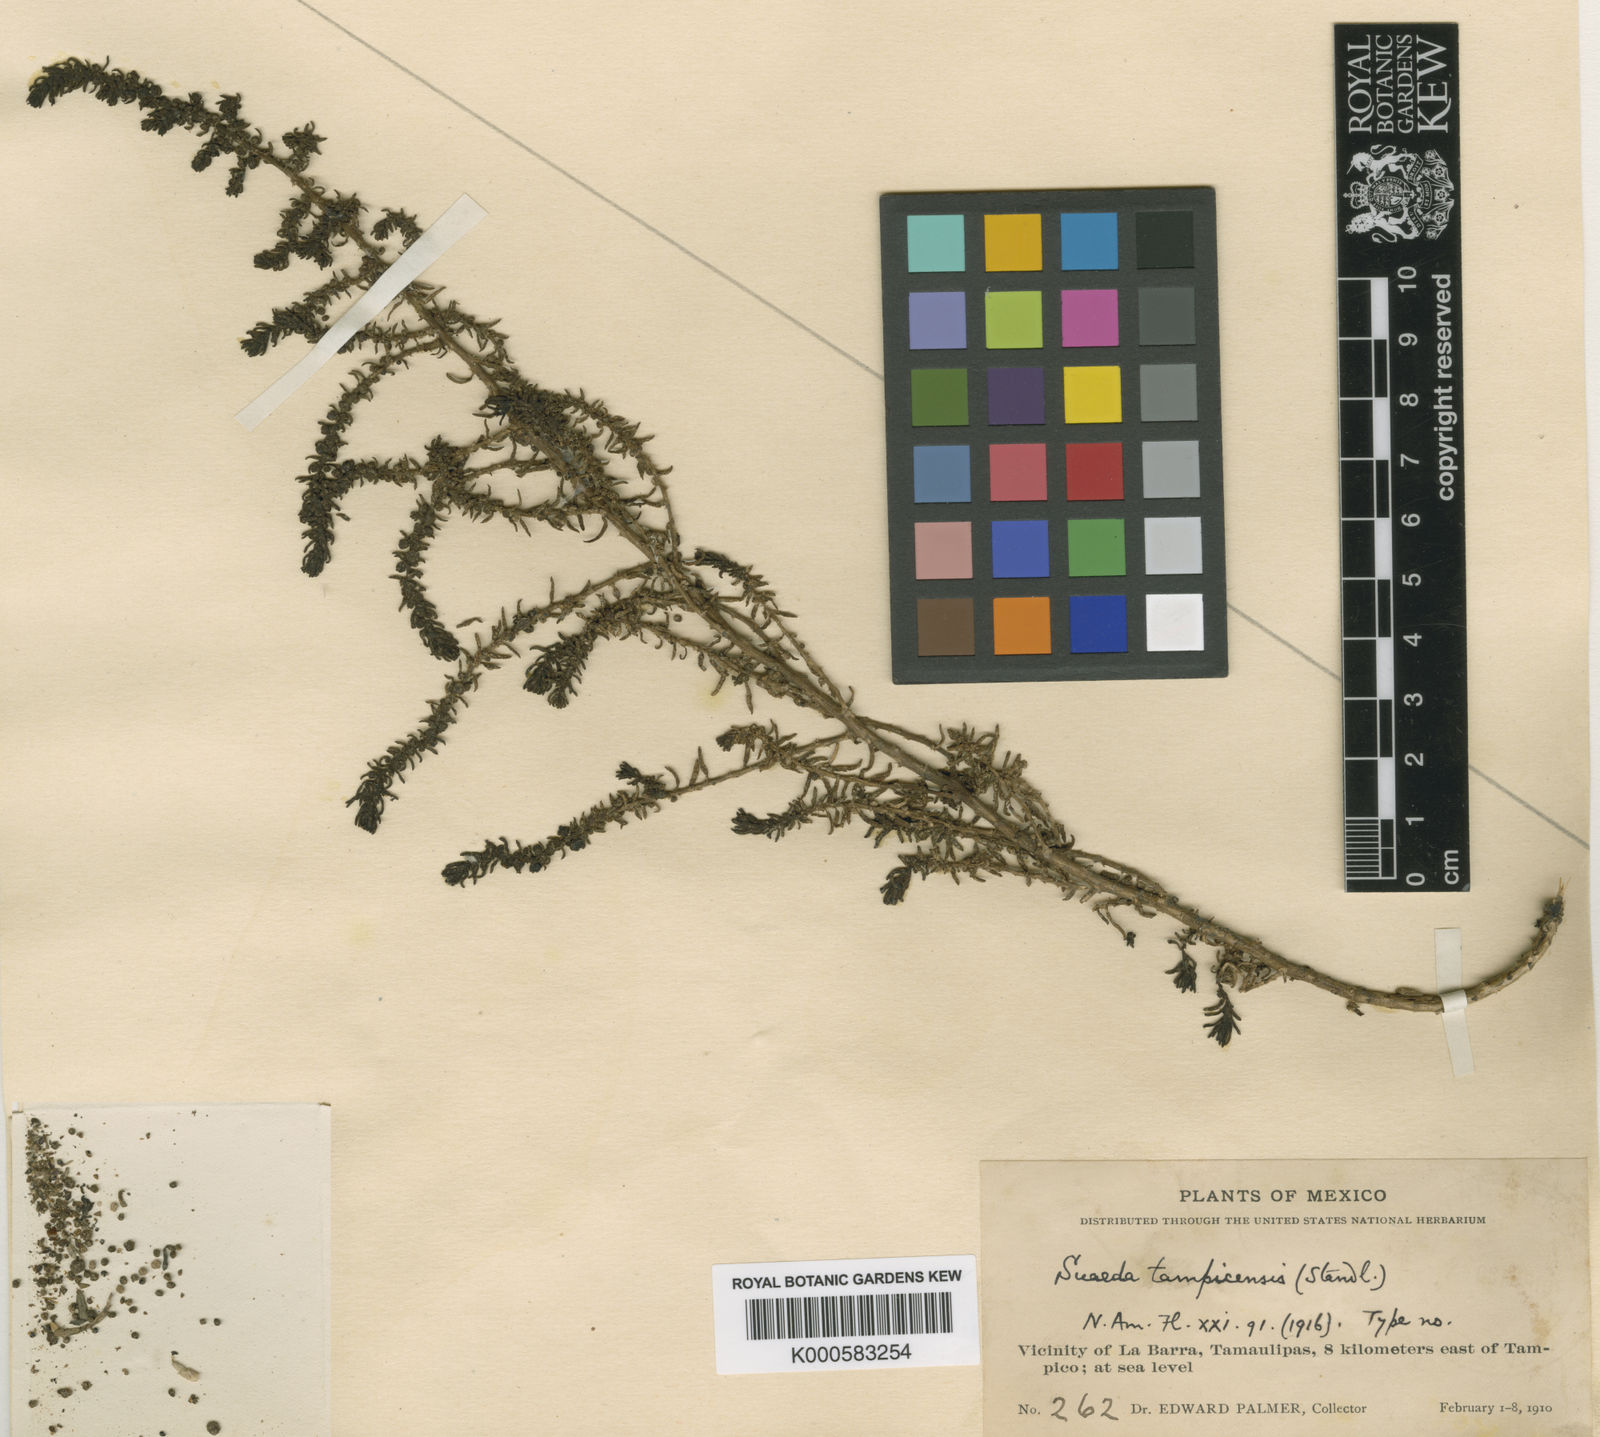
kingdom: Plantae
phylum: Tracheophyta
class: Magnoliopsida
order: Caryophyllales
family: Amaranthaceae
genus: Suaeda
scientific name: Suaeda tampicensis
